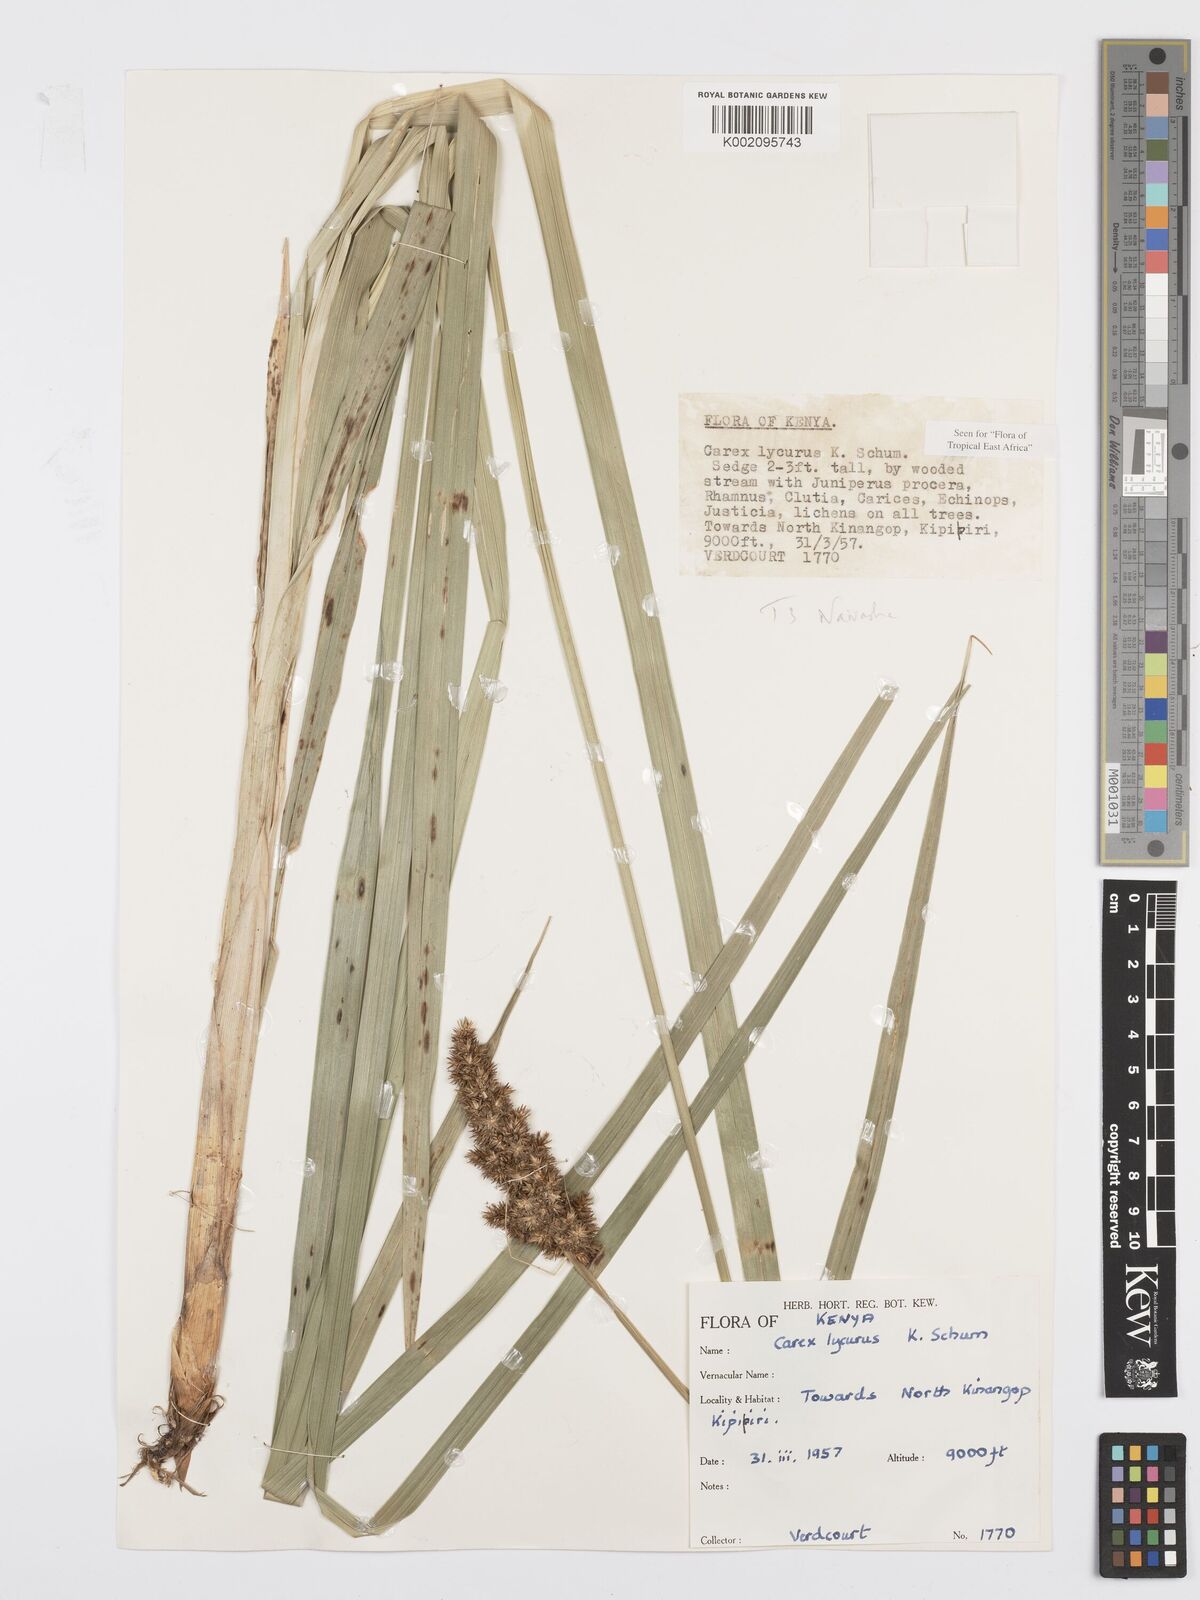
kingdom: Plantae
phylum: Tracheophyta
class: Liliopsida
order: Poales
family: Cyperaceae
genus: Carex
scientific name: Carex lycurus
